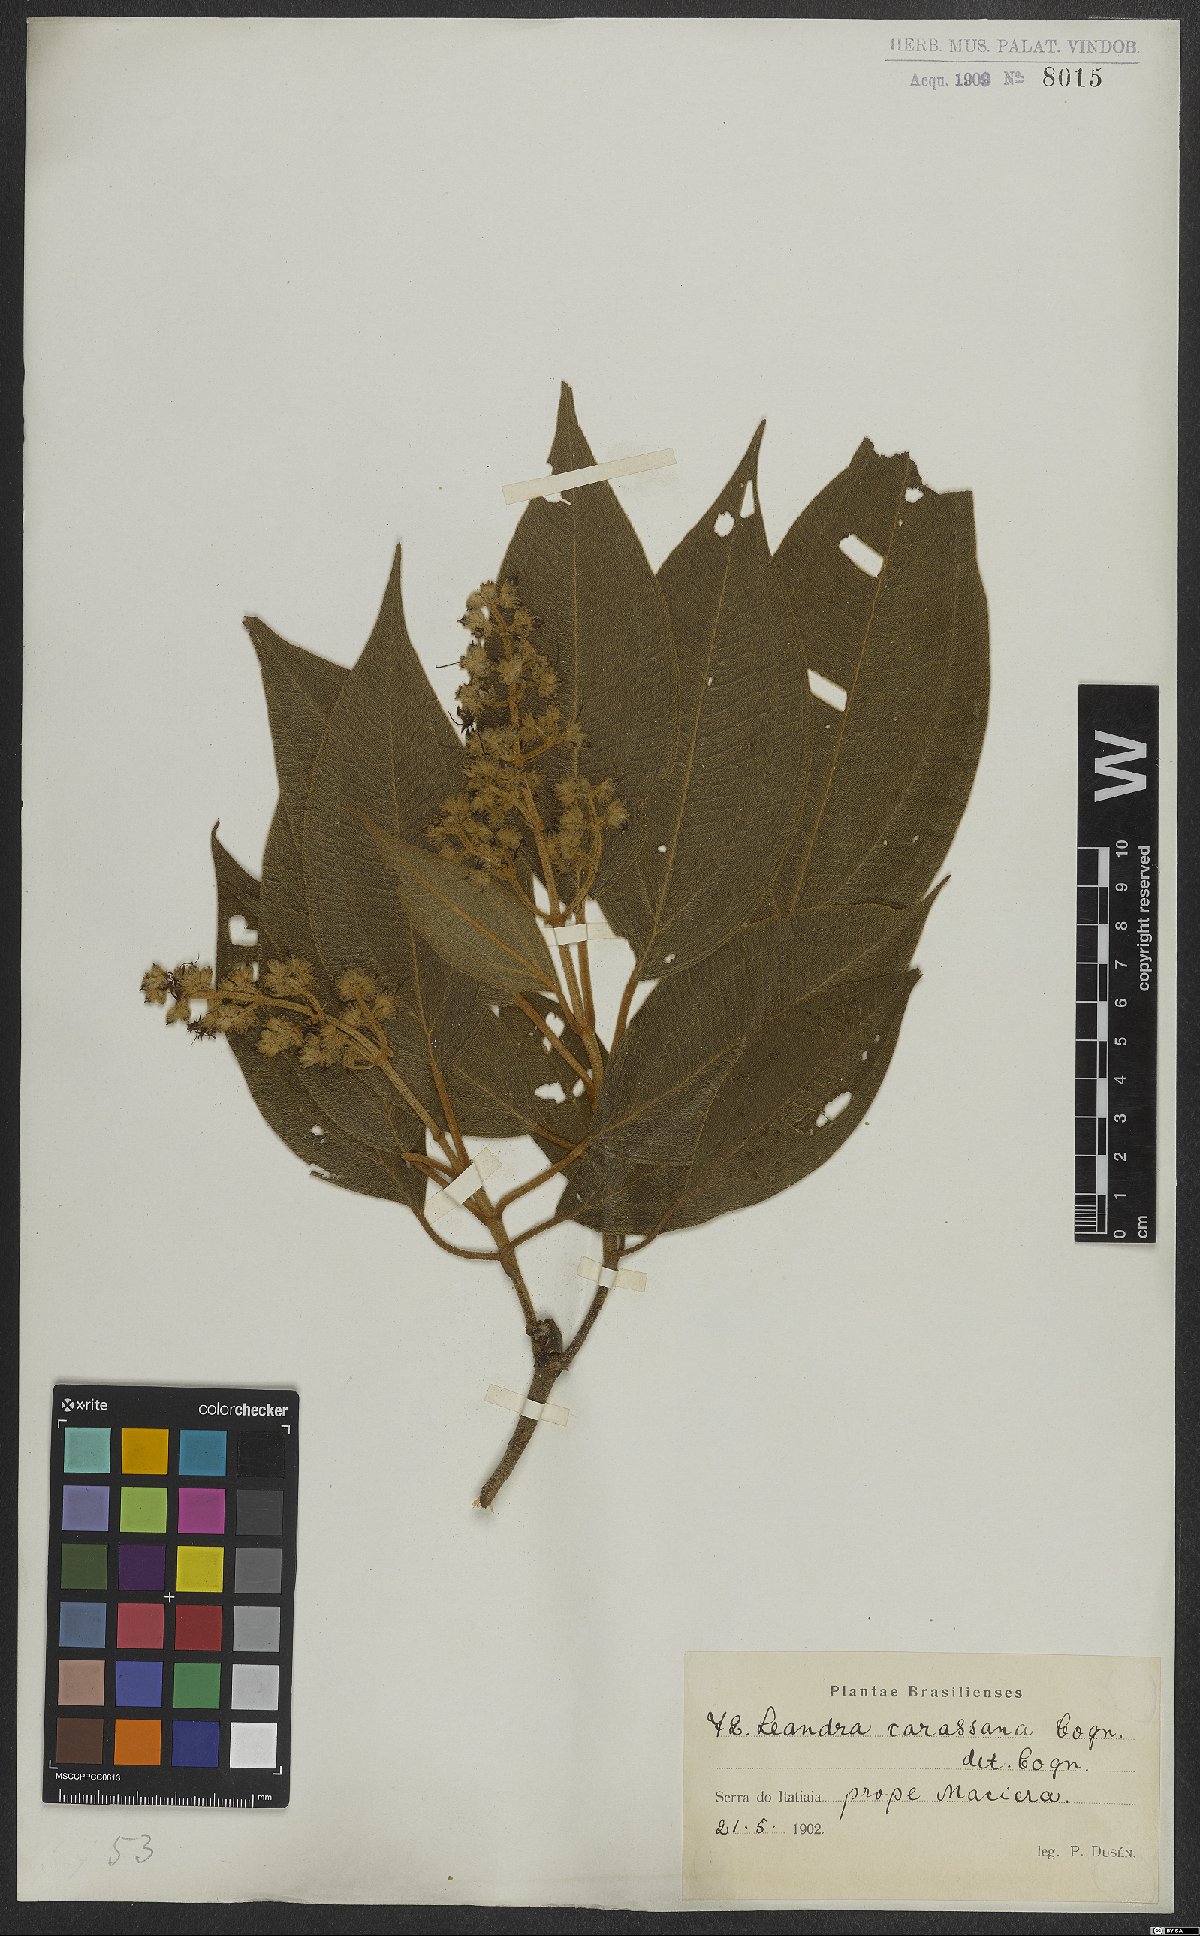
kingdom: Plantae
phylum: Tracheophyta
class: Magnoliopsida
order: Myrtales
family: Melastomataceae
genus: Miconia
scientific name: Miconia sublanata
